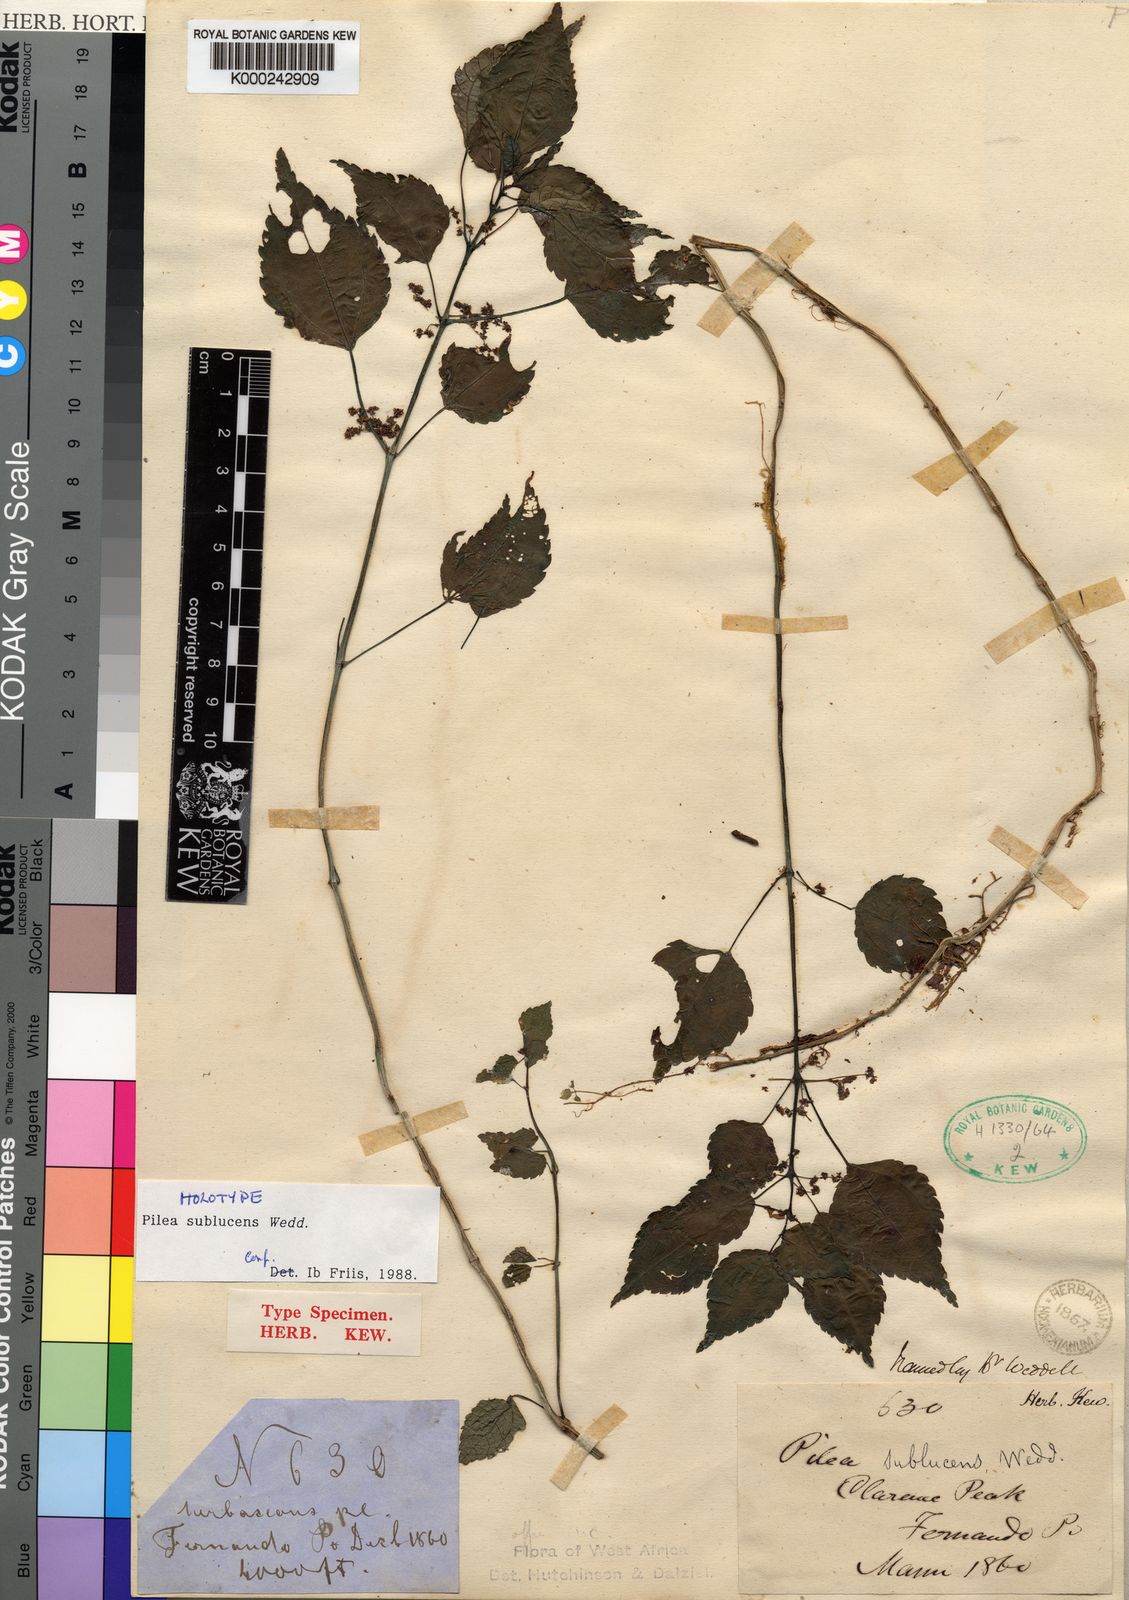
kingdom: Plantae
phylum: Tracheophyta
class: Magnoliopsida
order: Rosales
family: Urticaceae
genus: Pilea
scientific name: Pilea sublucens
